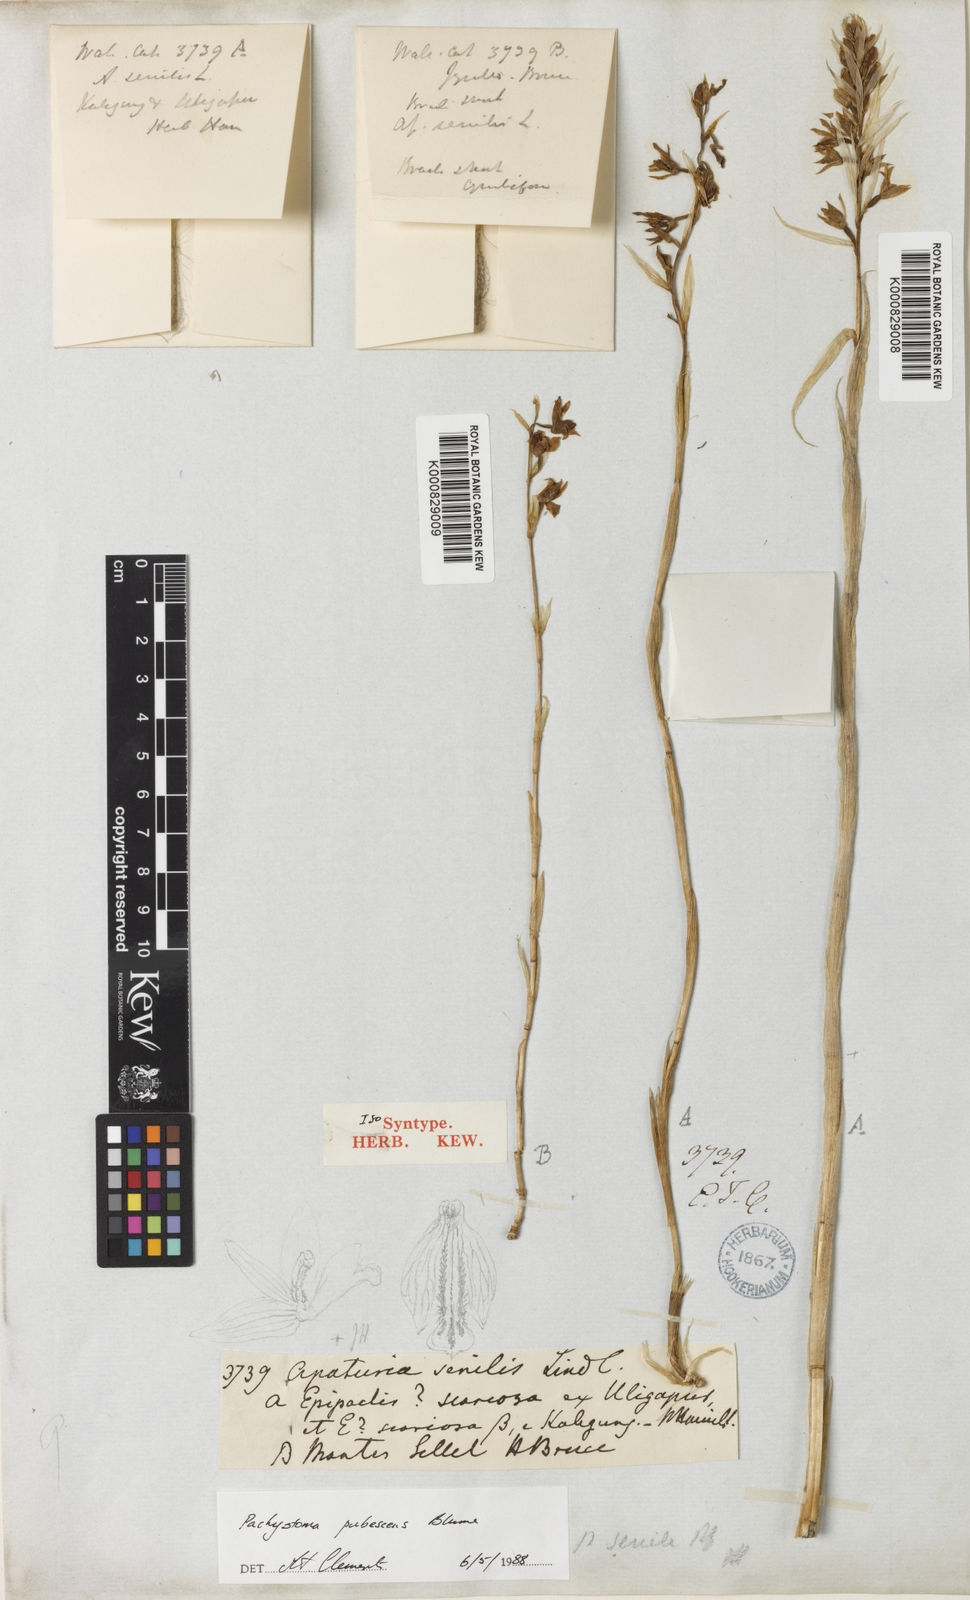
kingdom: Plantae
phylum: Tracheophyta
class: Liliopsida
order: Asparagales
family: Orchidaceae
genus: Pachystoma
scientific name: Pachystoma pubescens
